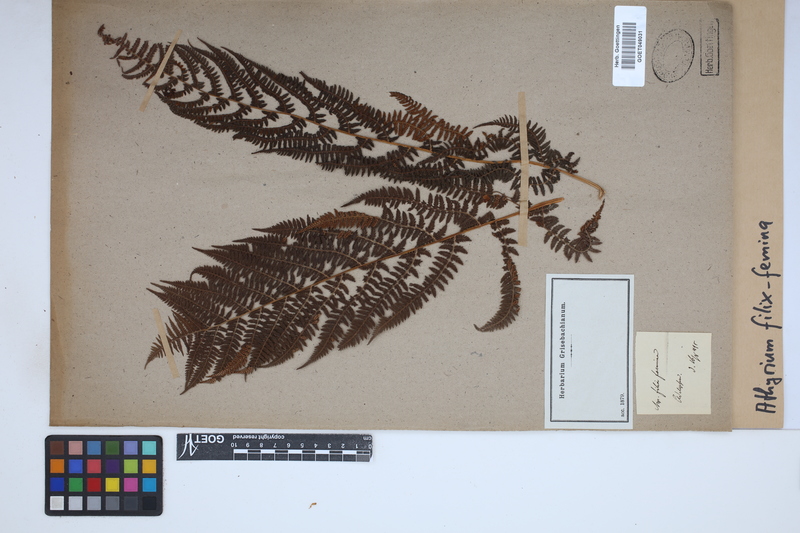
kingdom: Plantae
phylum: Tracheophyta
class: Polypodiopsida
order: Polypodiales
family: Athyriaceae
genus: Athyrium
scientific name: Athyrium filix-femina
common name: Lady fern
